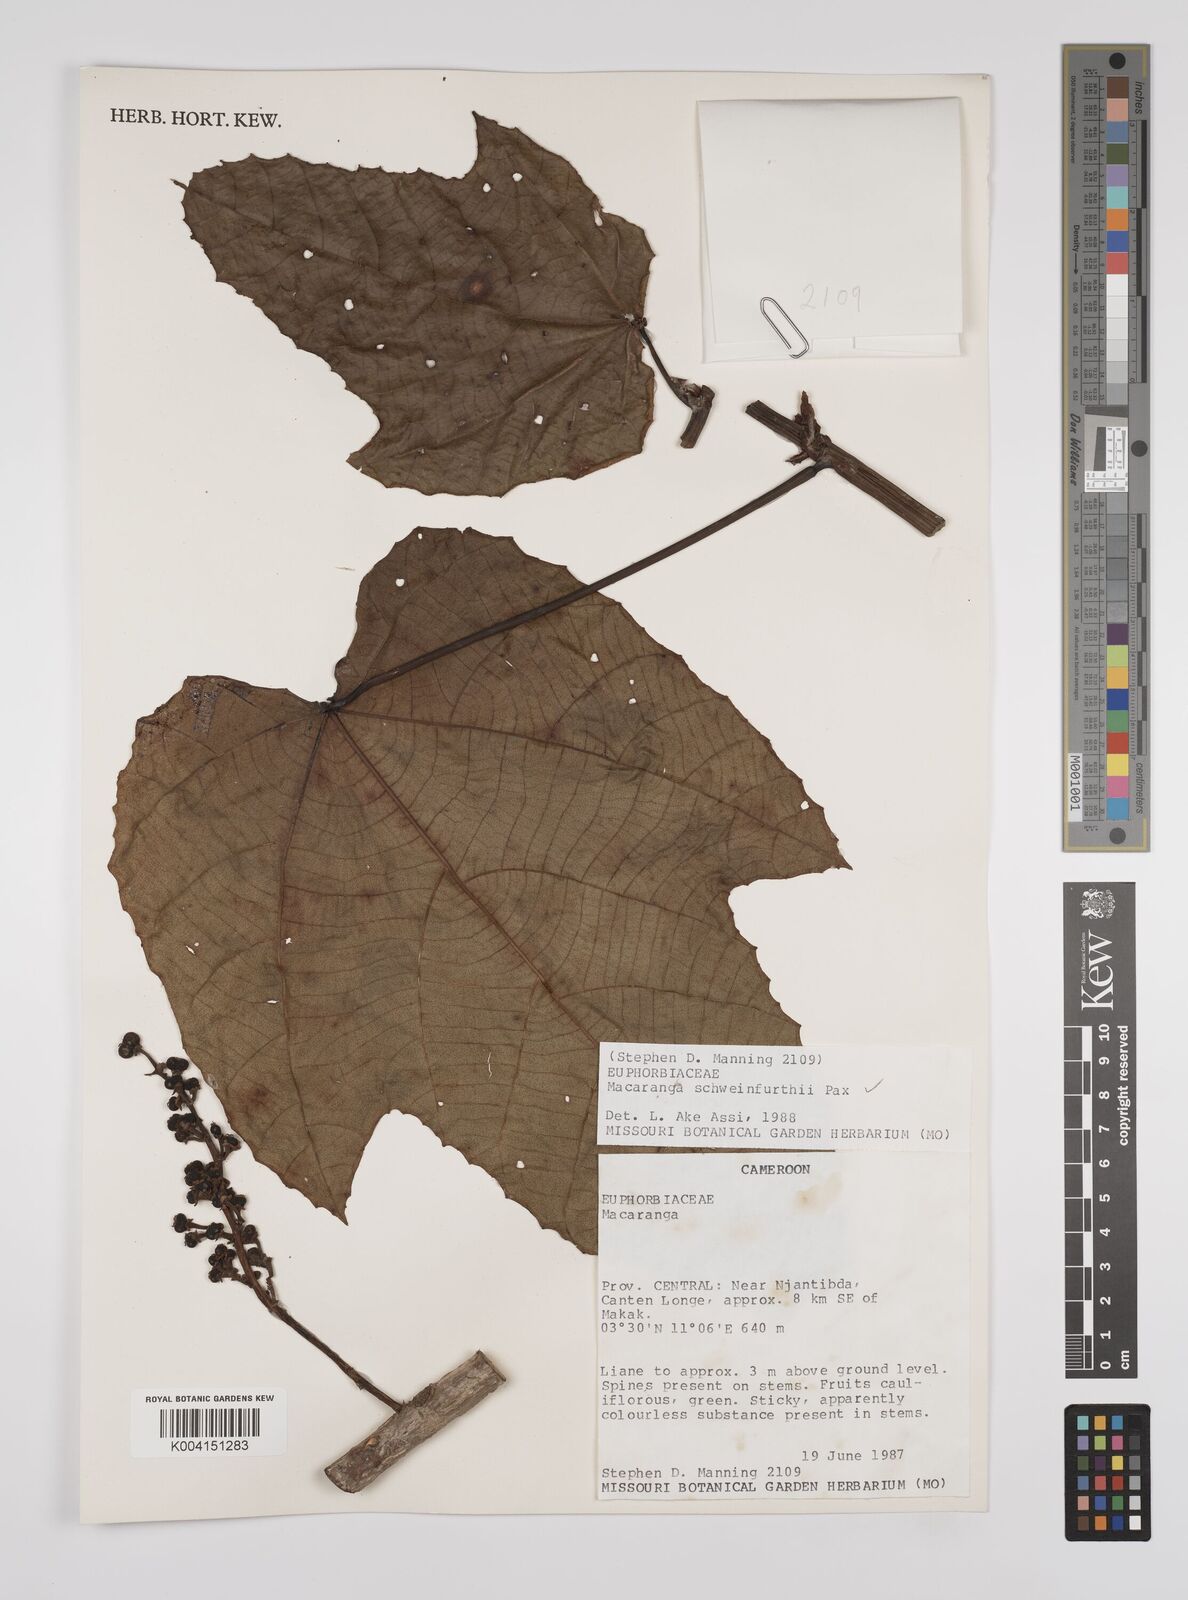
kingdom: Plantae
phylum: Tracheophyta
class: Magnoliopsida
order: Malpighiales
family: Euphorbiaceae
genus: Macaranga
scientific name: Macaranga schweinfurthii
